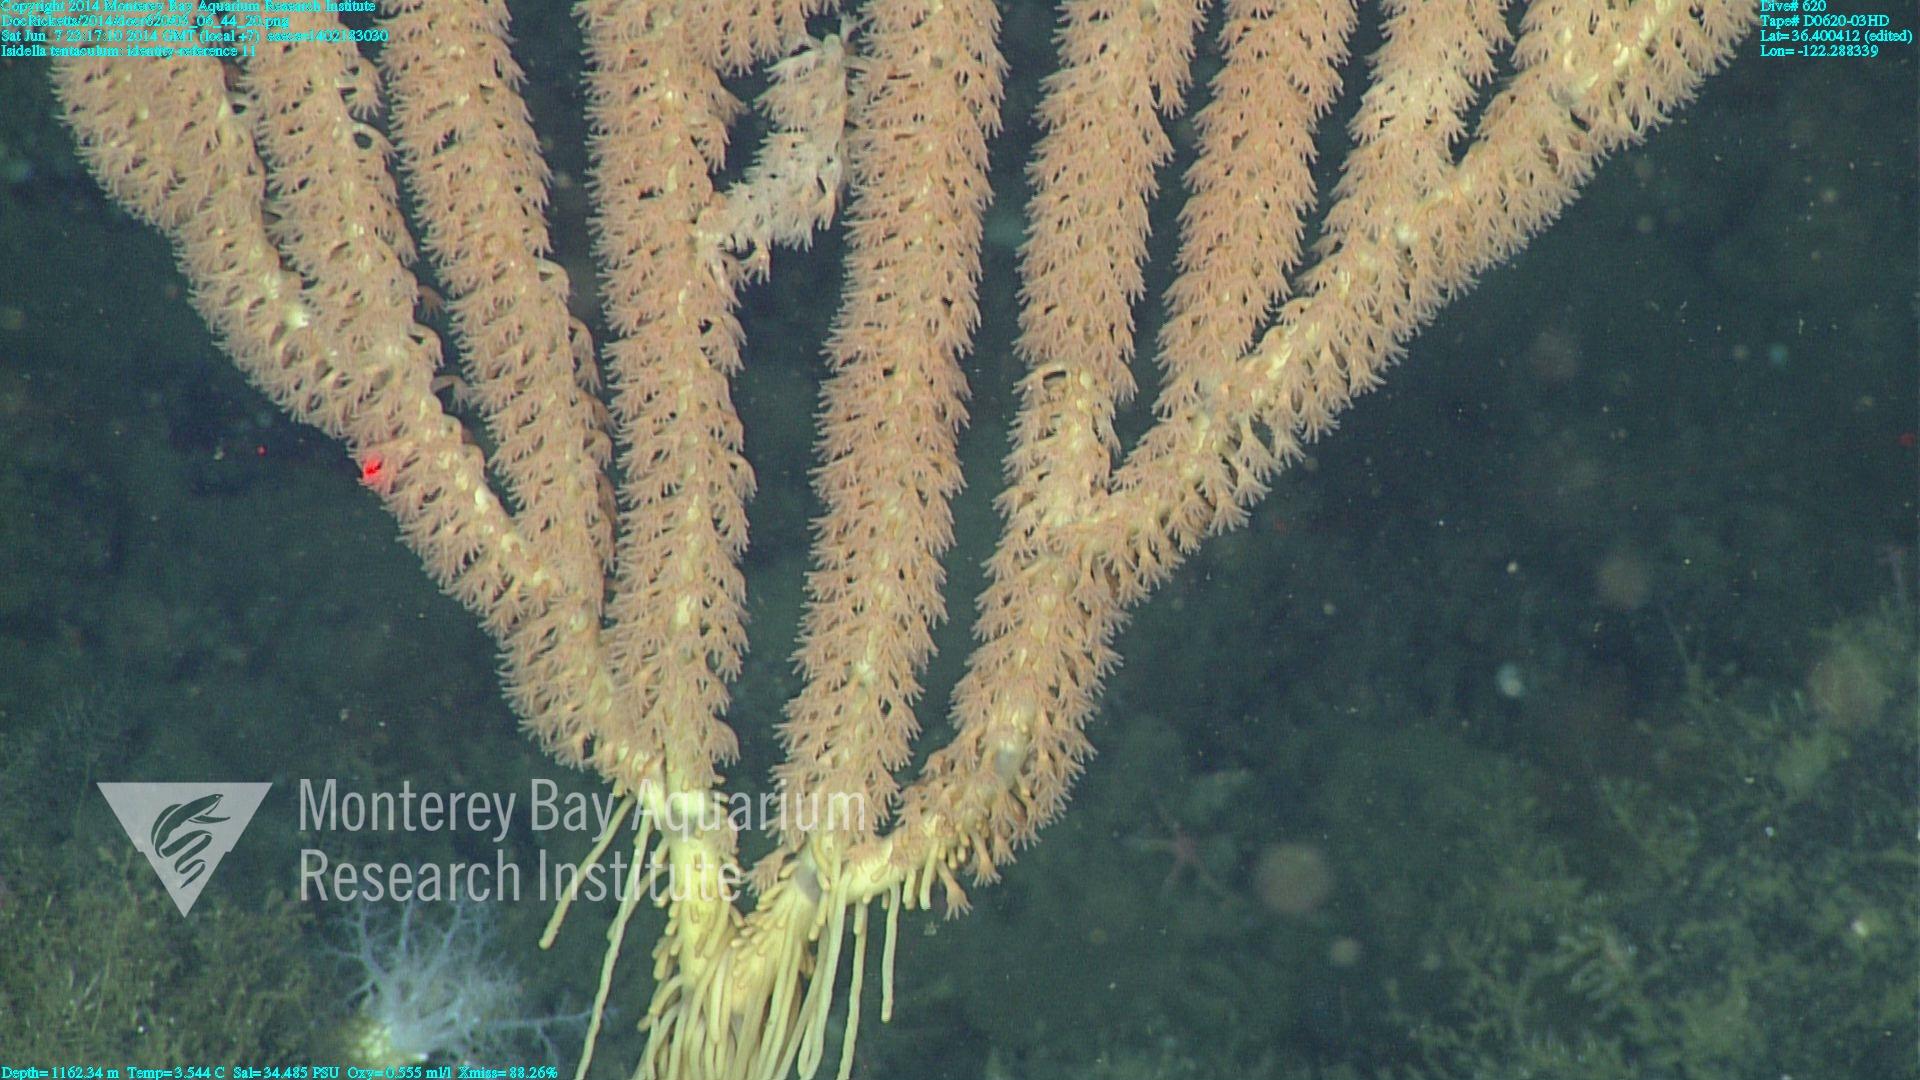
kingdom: Animalia
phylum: Cnidaria
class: Anthozoa
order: Scleralcyonacea
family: Keratoisididae
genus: Isidella
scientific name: Isidella tentaculum
